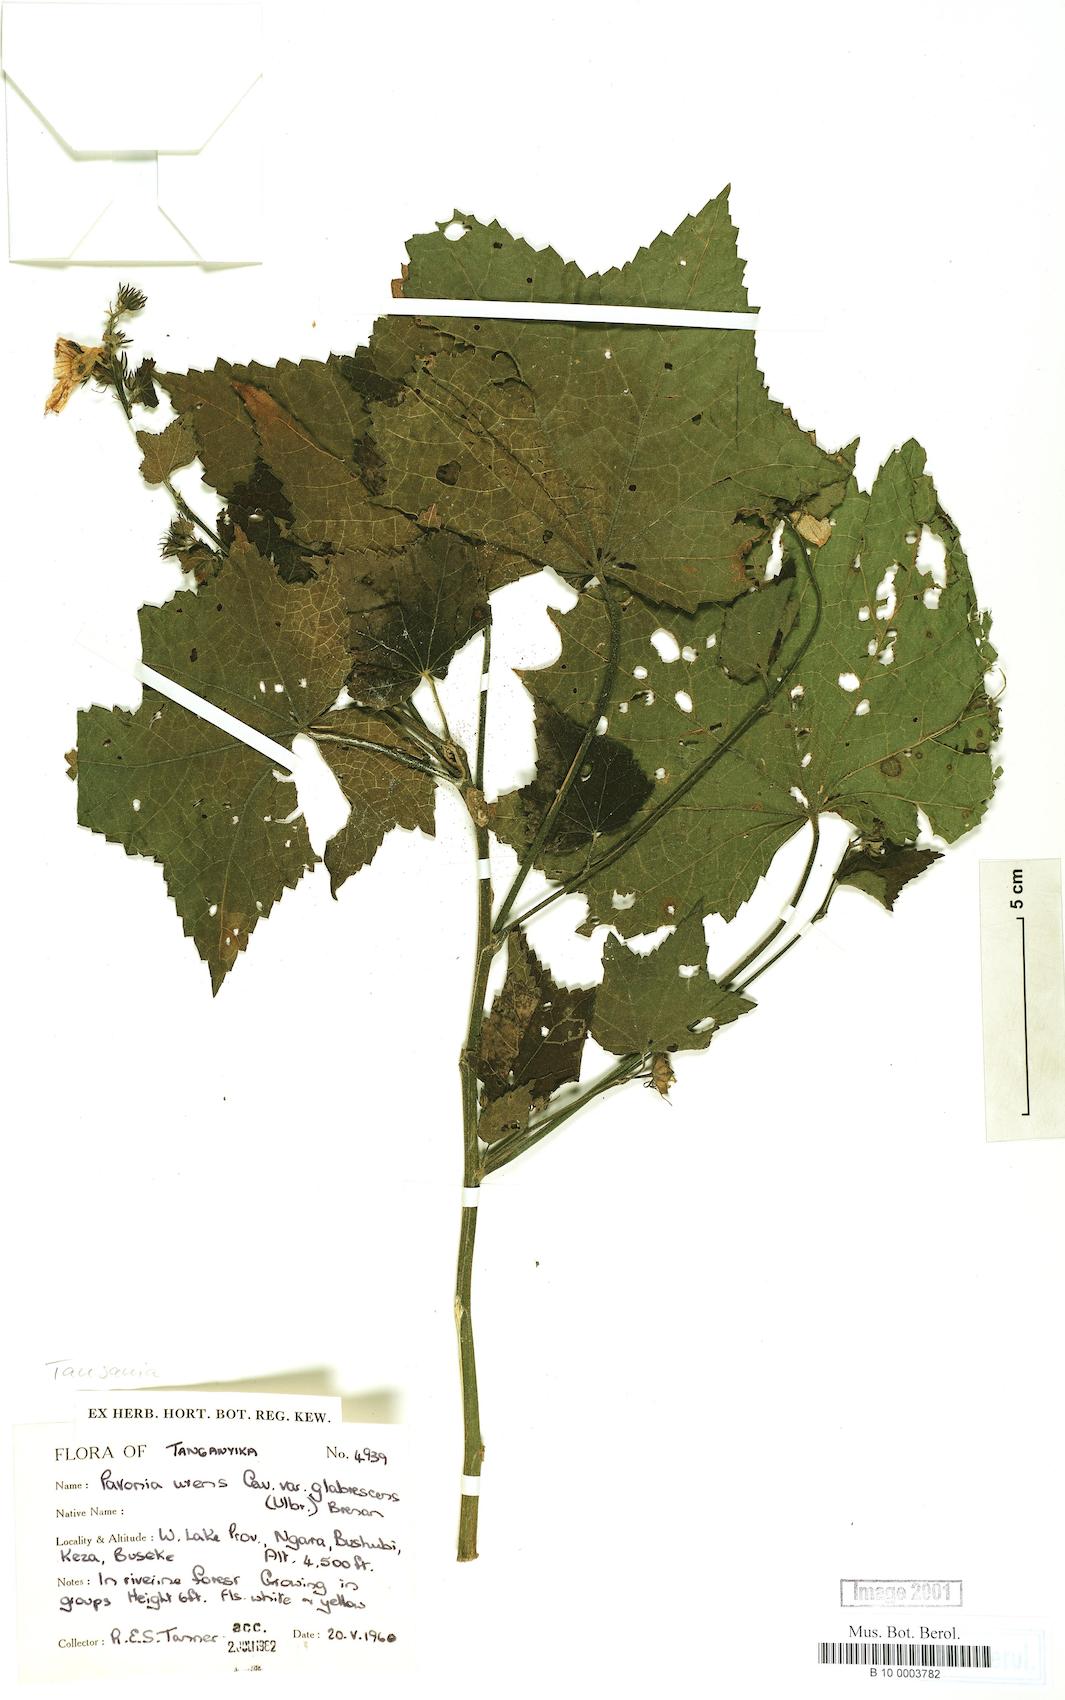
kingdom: Plantae
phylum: Tracheophyta
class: Magnoliopsida
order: Malvales
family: Malvaceae
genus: Pavonia
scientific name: Pavonia schimperiana
